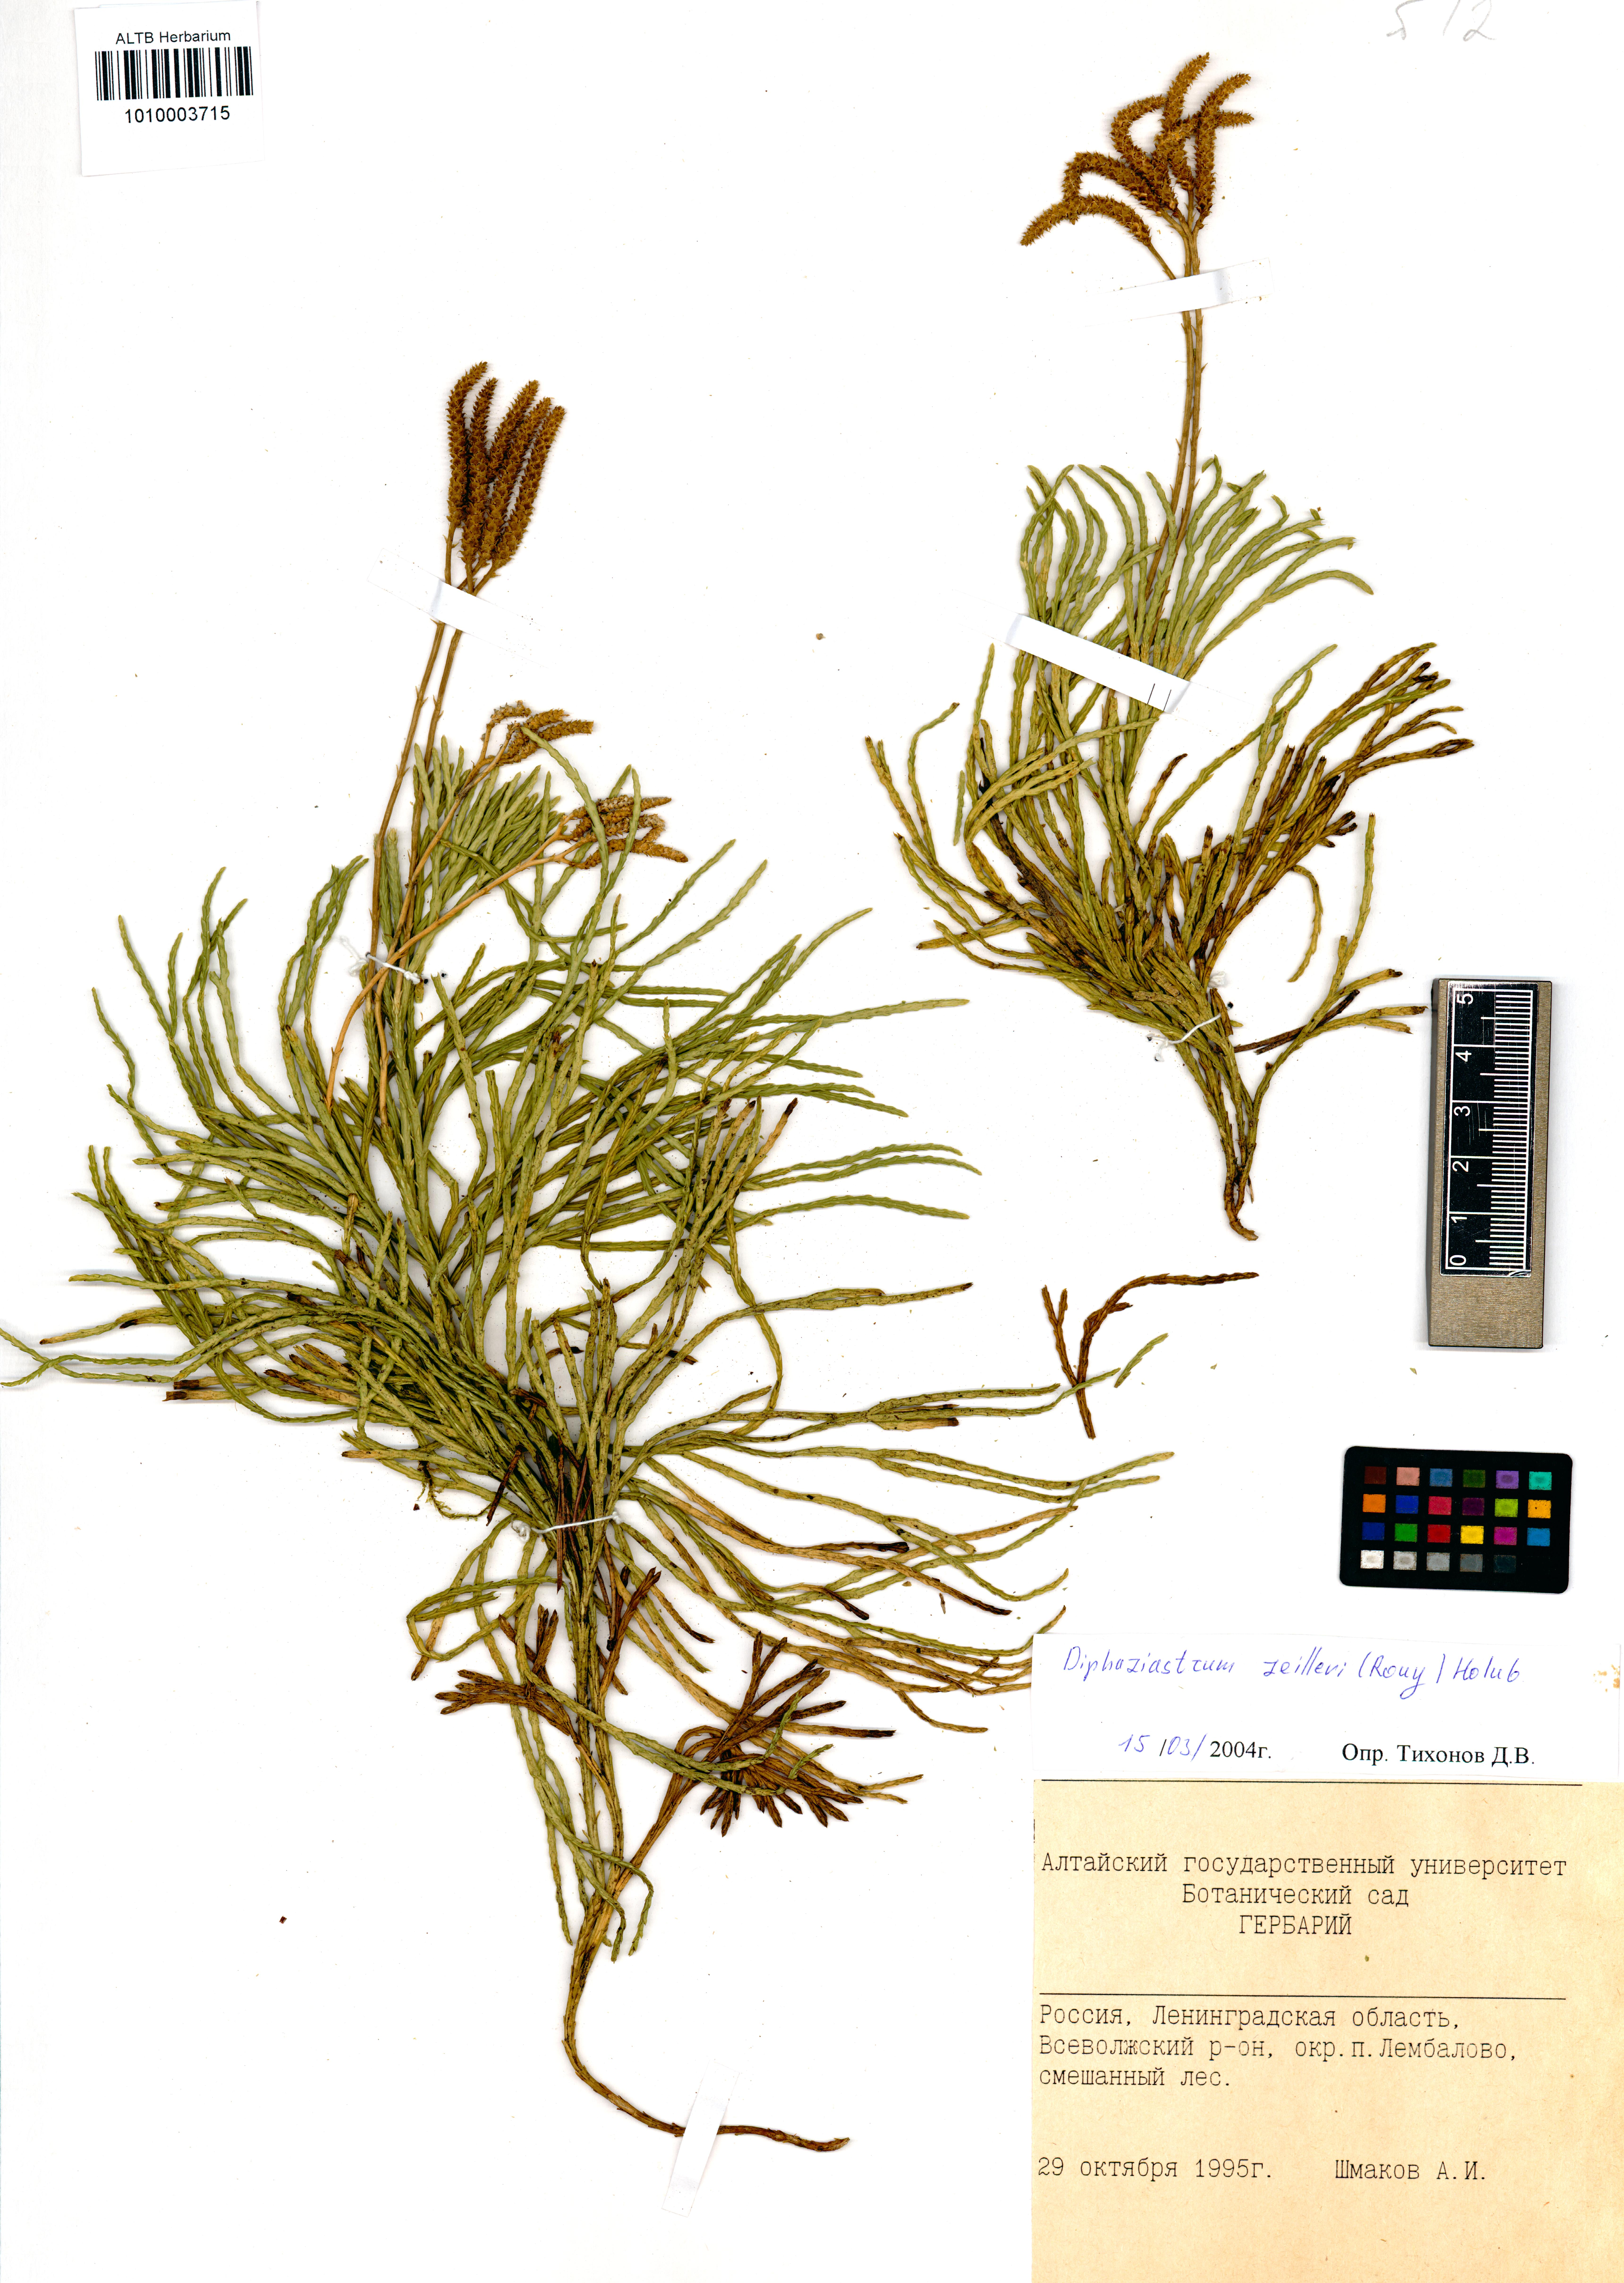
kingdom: Plantae
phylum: Tracheophyta
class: Lycopodiopsida
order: Lycopodiales
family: Lycopodiaceae
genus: Diphasiastrum
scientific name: Diphasiastrum zeilleri
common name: Zeiller's clubmoss
